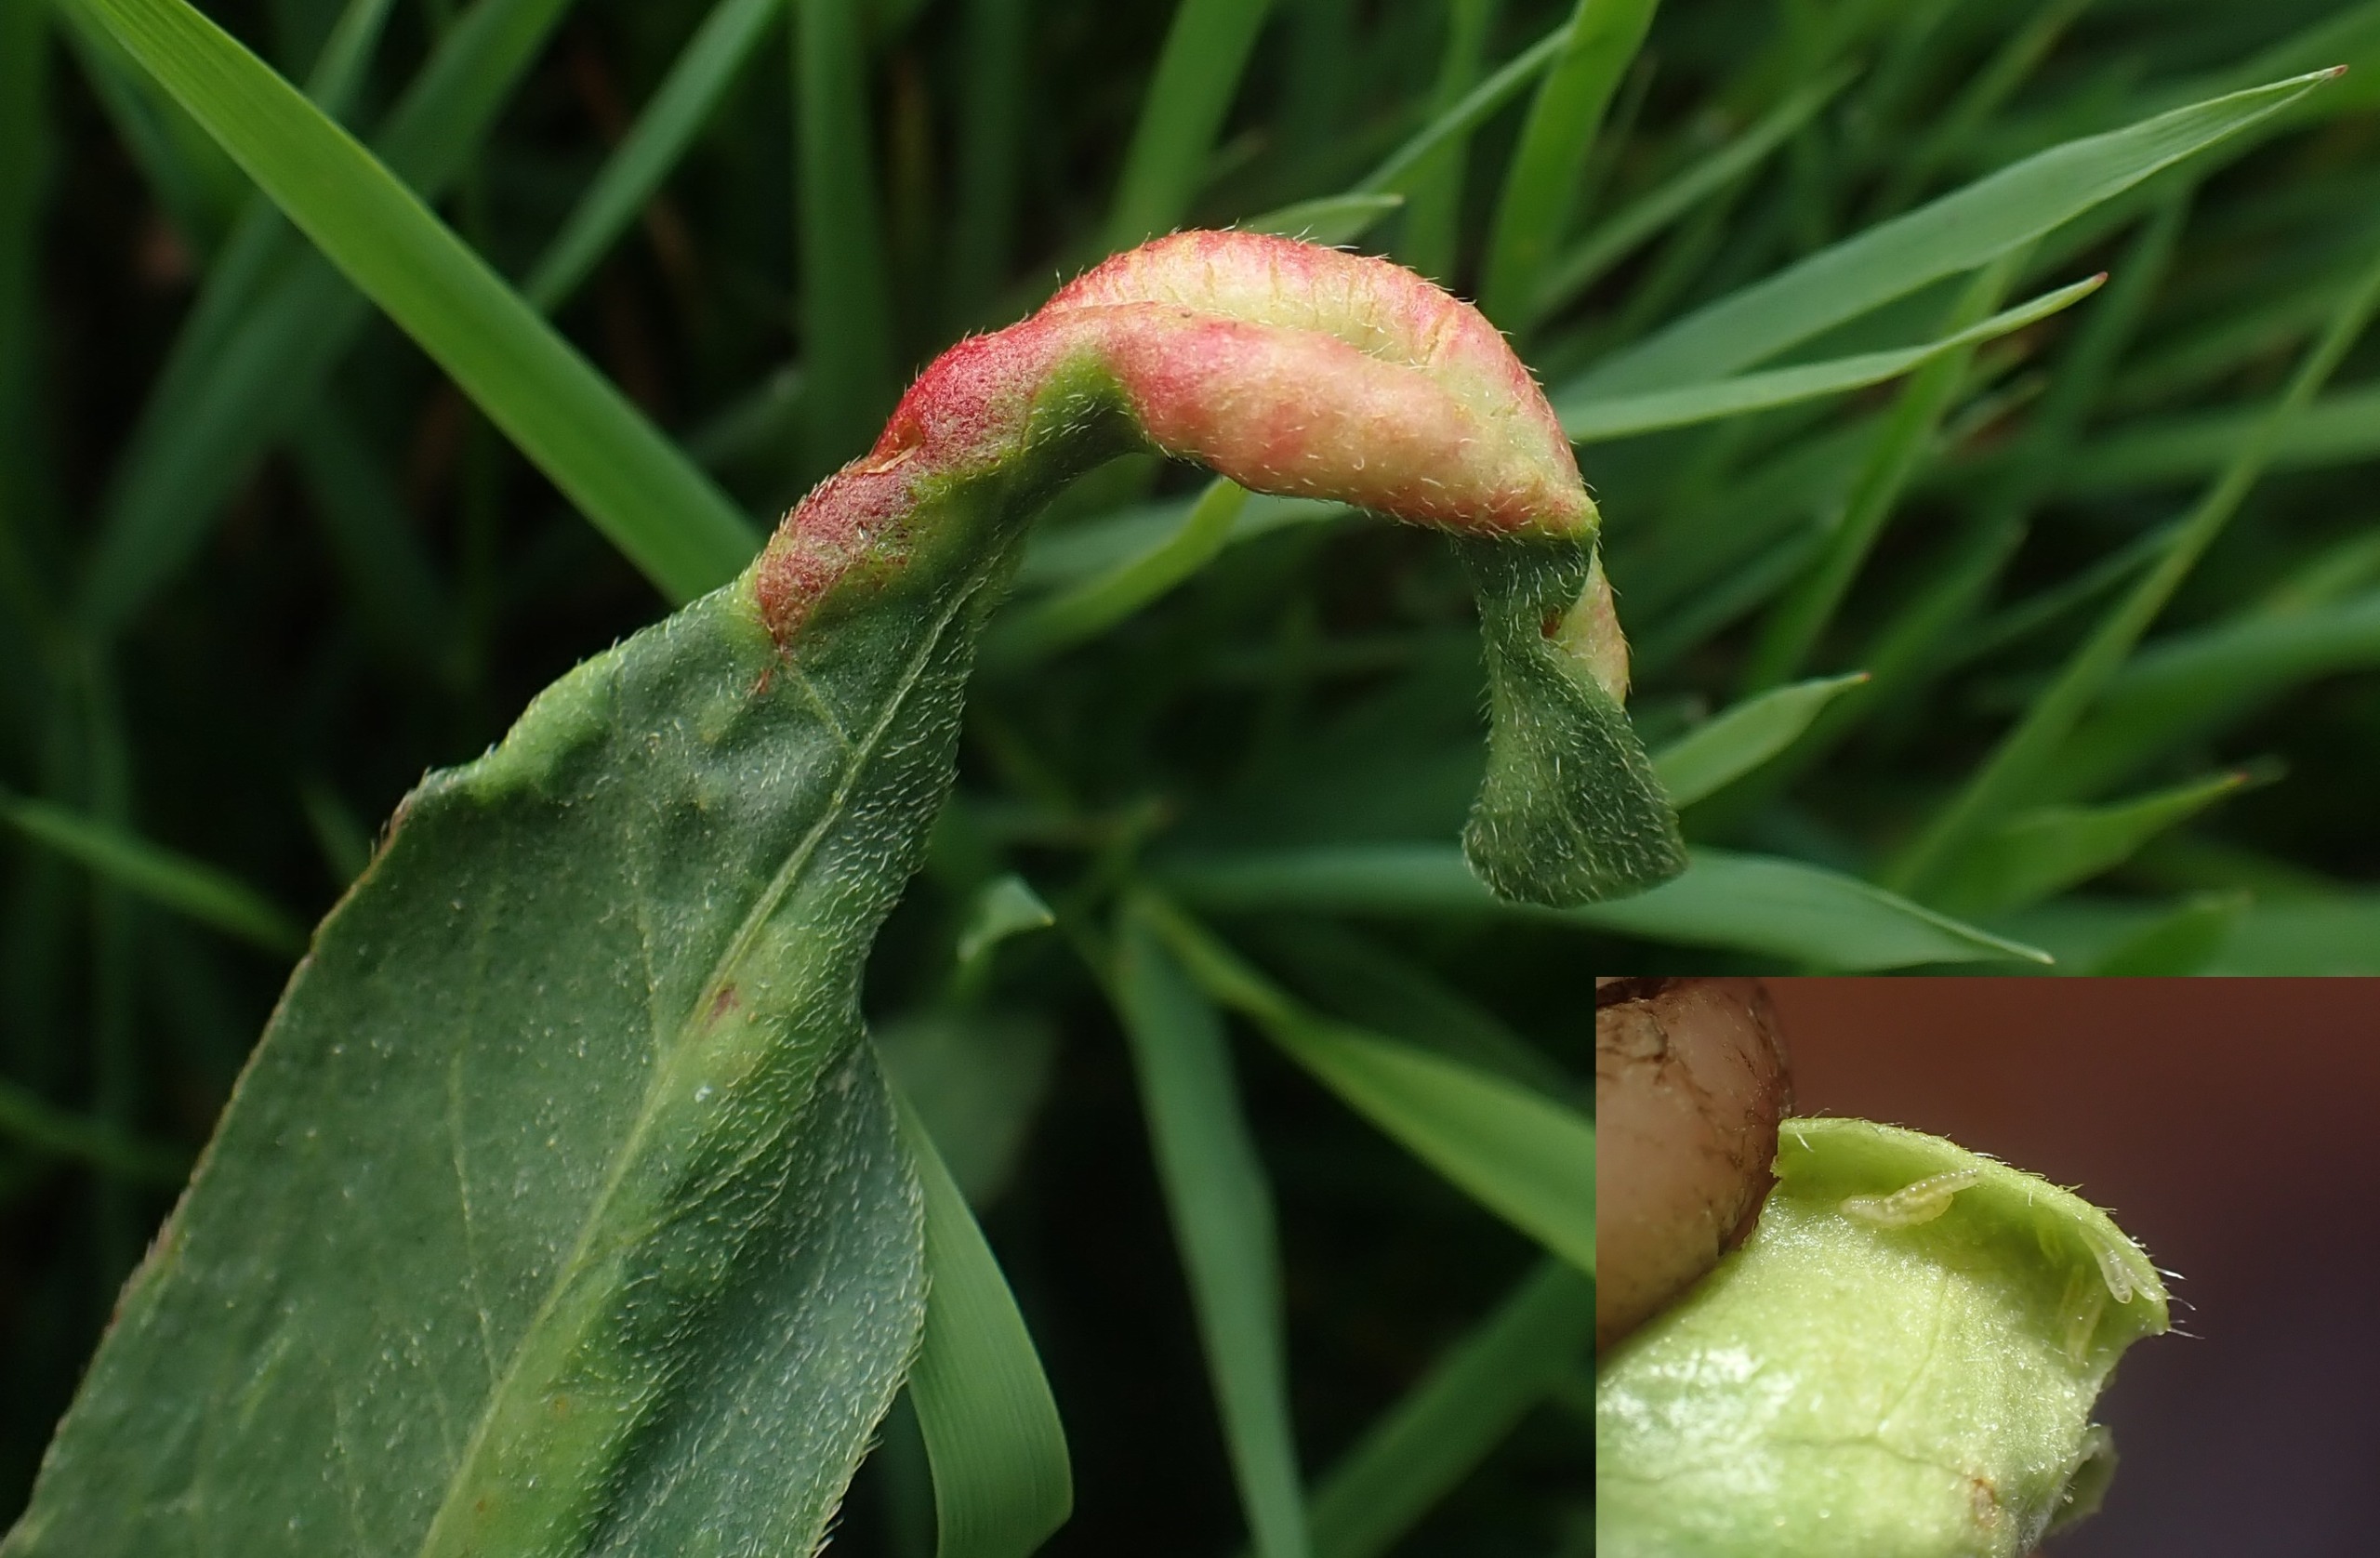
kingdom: Animalia
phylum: Arthropoda
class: Insecta
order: Diptera
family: Cecidomyiidae
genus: Wachtliella
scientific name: Wachtliella persicariae
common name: Pileurtgalmyg
